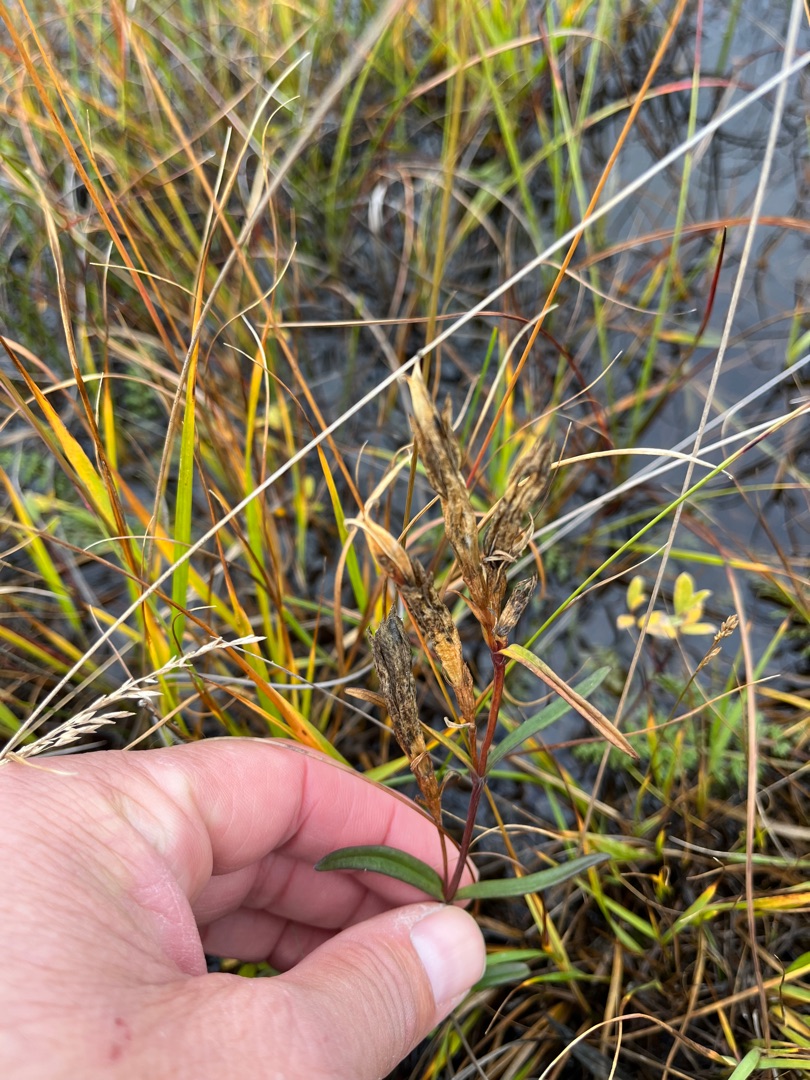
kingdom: Plantae
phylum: Tracheophyta
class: Magnoliopsida
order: Gentianales
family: Gentianaceae
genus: Gentiana
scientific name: Gentiana pneumonanthe
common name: Klokke-ensian
